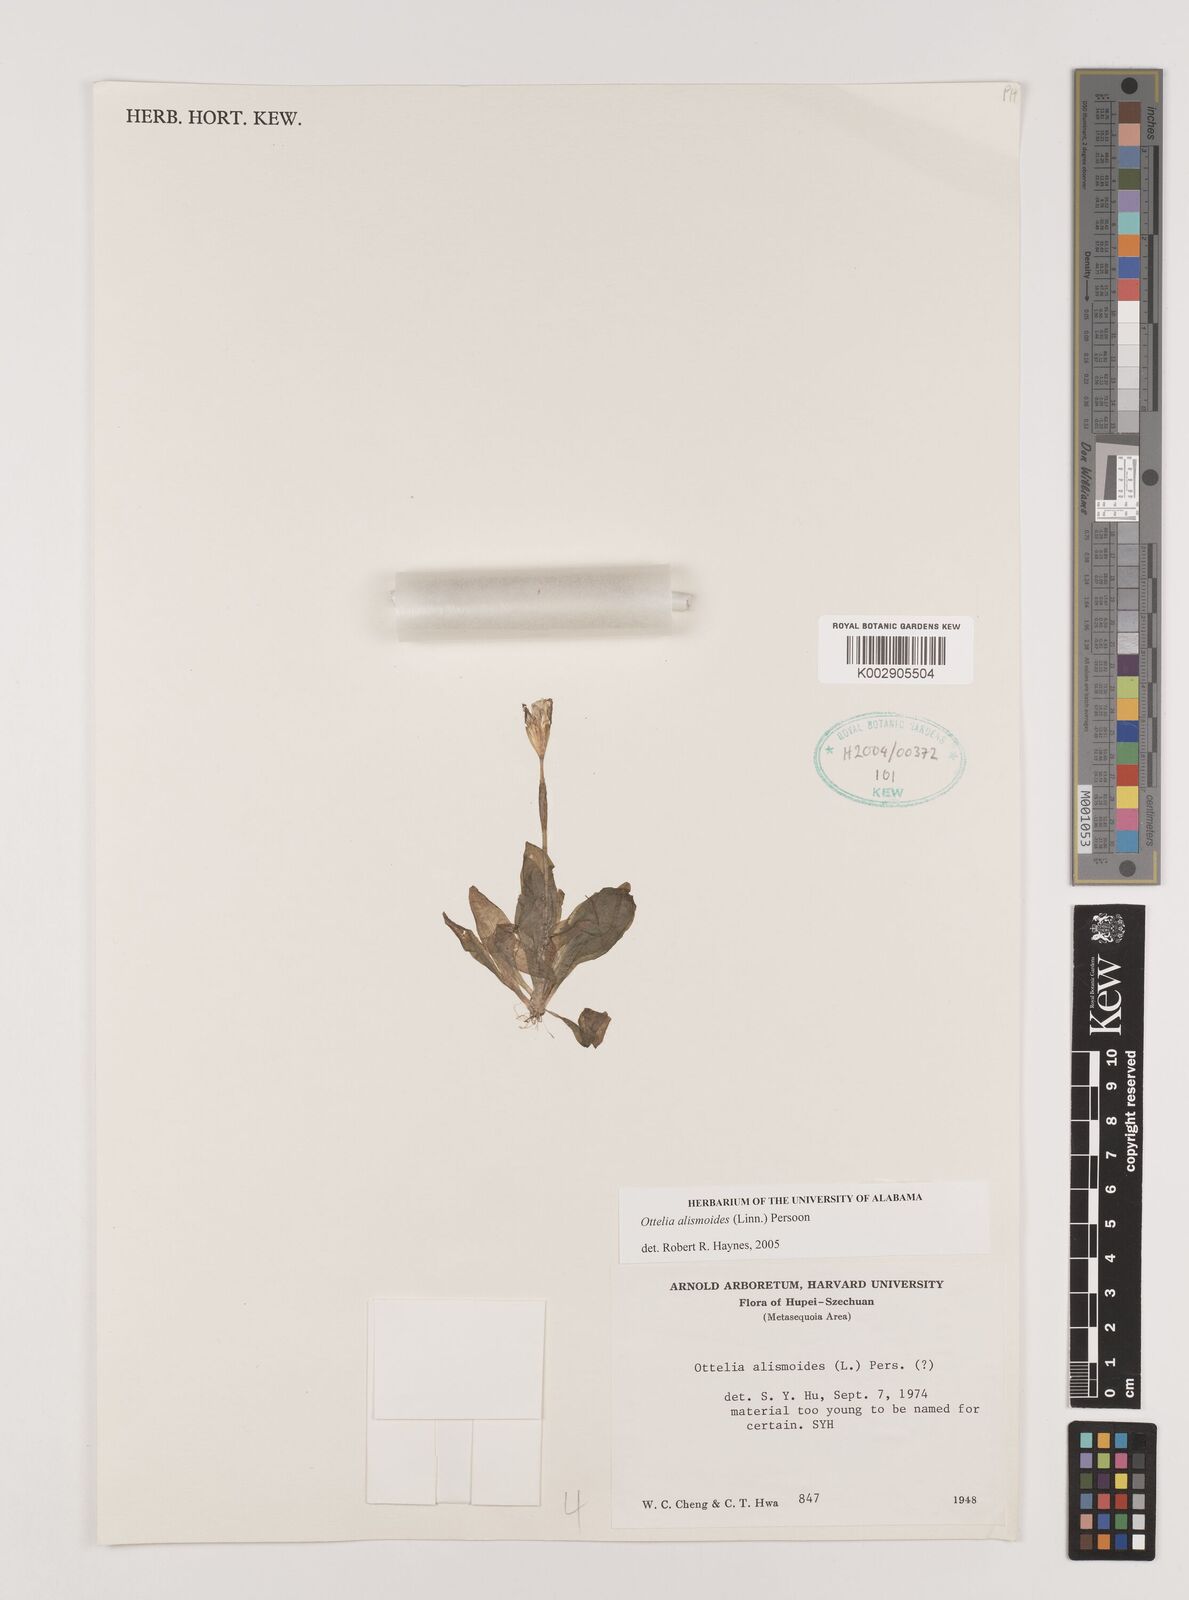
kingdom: Plantae
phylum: Tracheophyta
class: Liliopsida
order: Alismatales
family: Hydrocharitaceae
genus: Ottelia
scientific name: Ottelia alismoides
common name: Duck-lettuce
